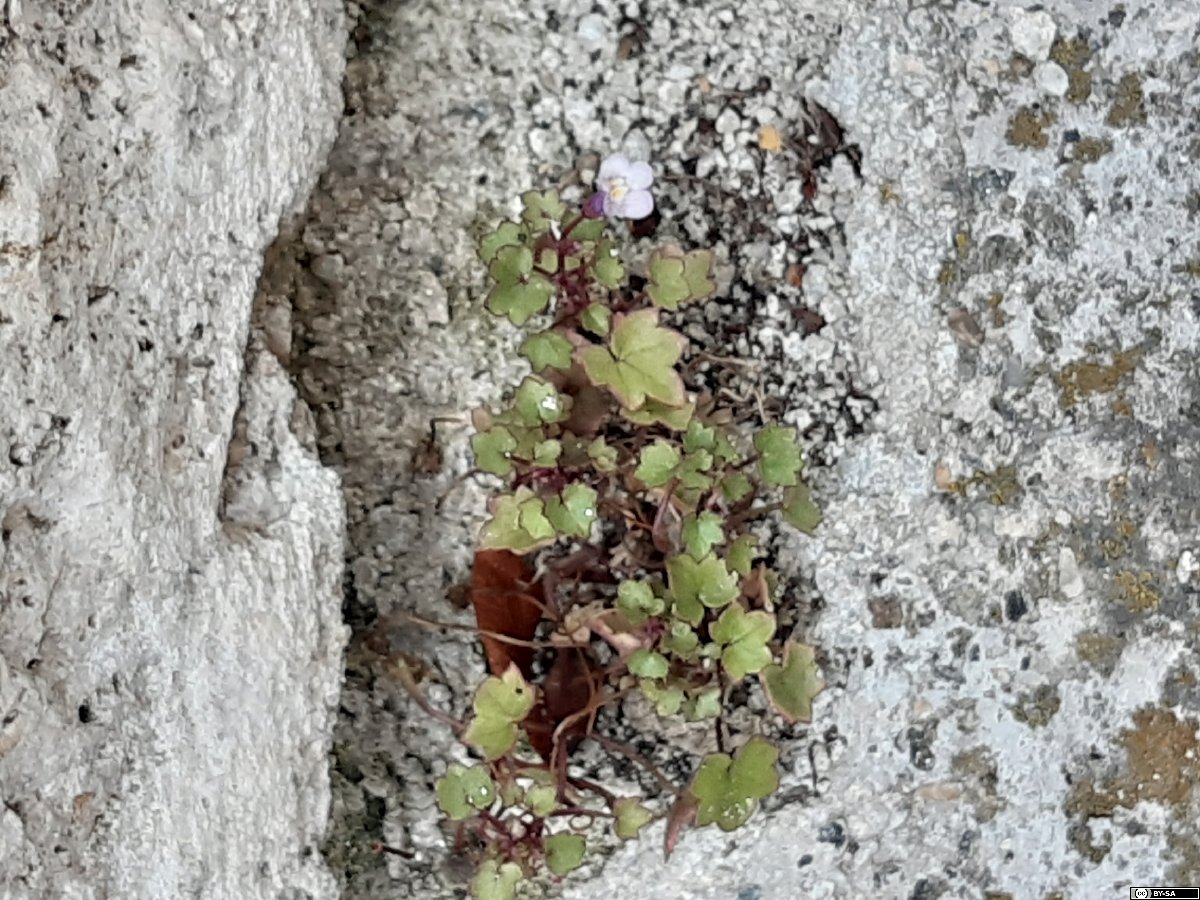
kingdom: Plantae
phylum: Tracheophyta
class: Magnoliopsida
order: Lamiales
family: Plantaginaceae
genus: Cymbalaria
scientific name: Cymbalaria muralis
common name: Ivy-leaved toadflax
